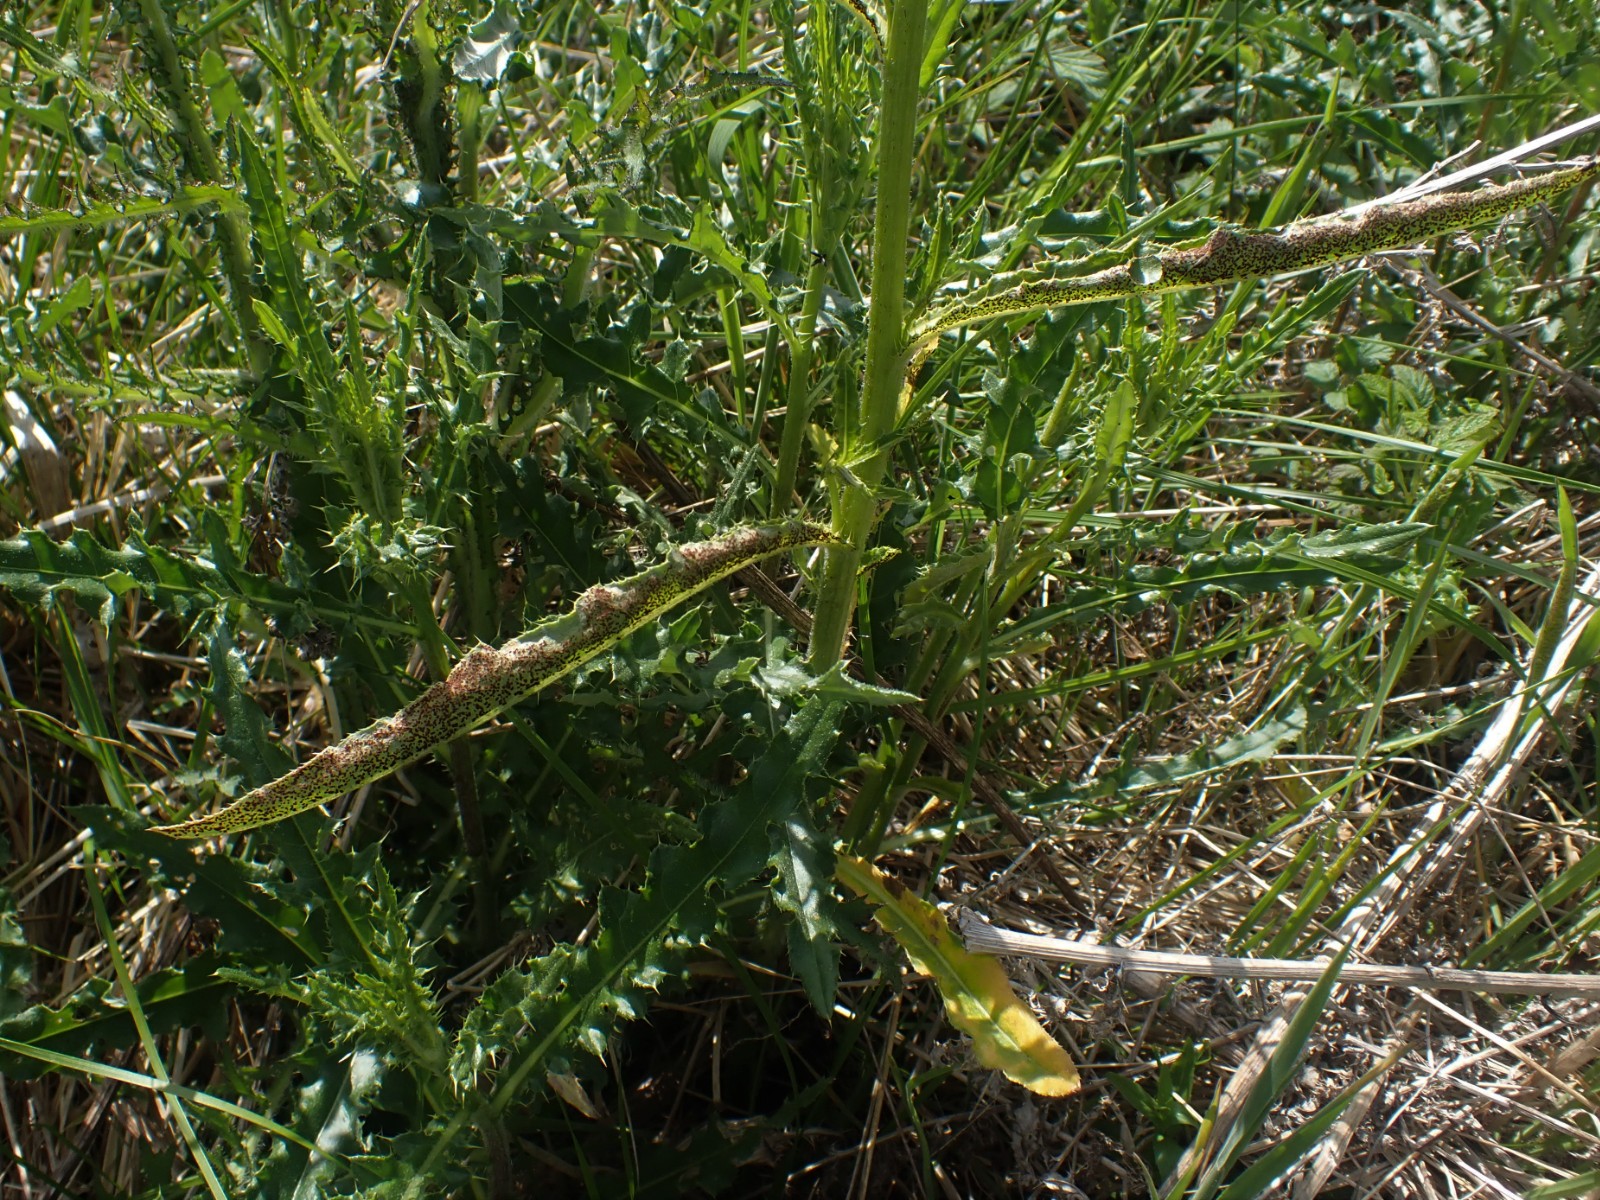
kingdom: Fungi
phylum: Basidiomycota
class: Pucciniomycetes
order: Pucciniales
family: Pucciniaceae
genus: Puccinia
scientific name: Puccinia suaveolens
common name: tidsel-tvecellerust
